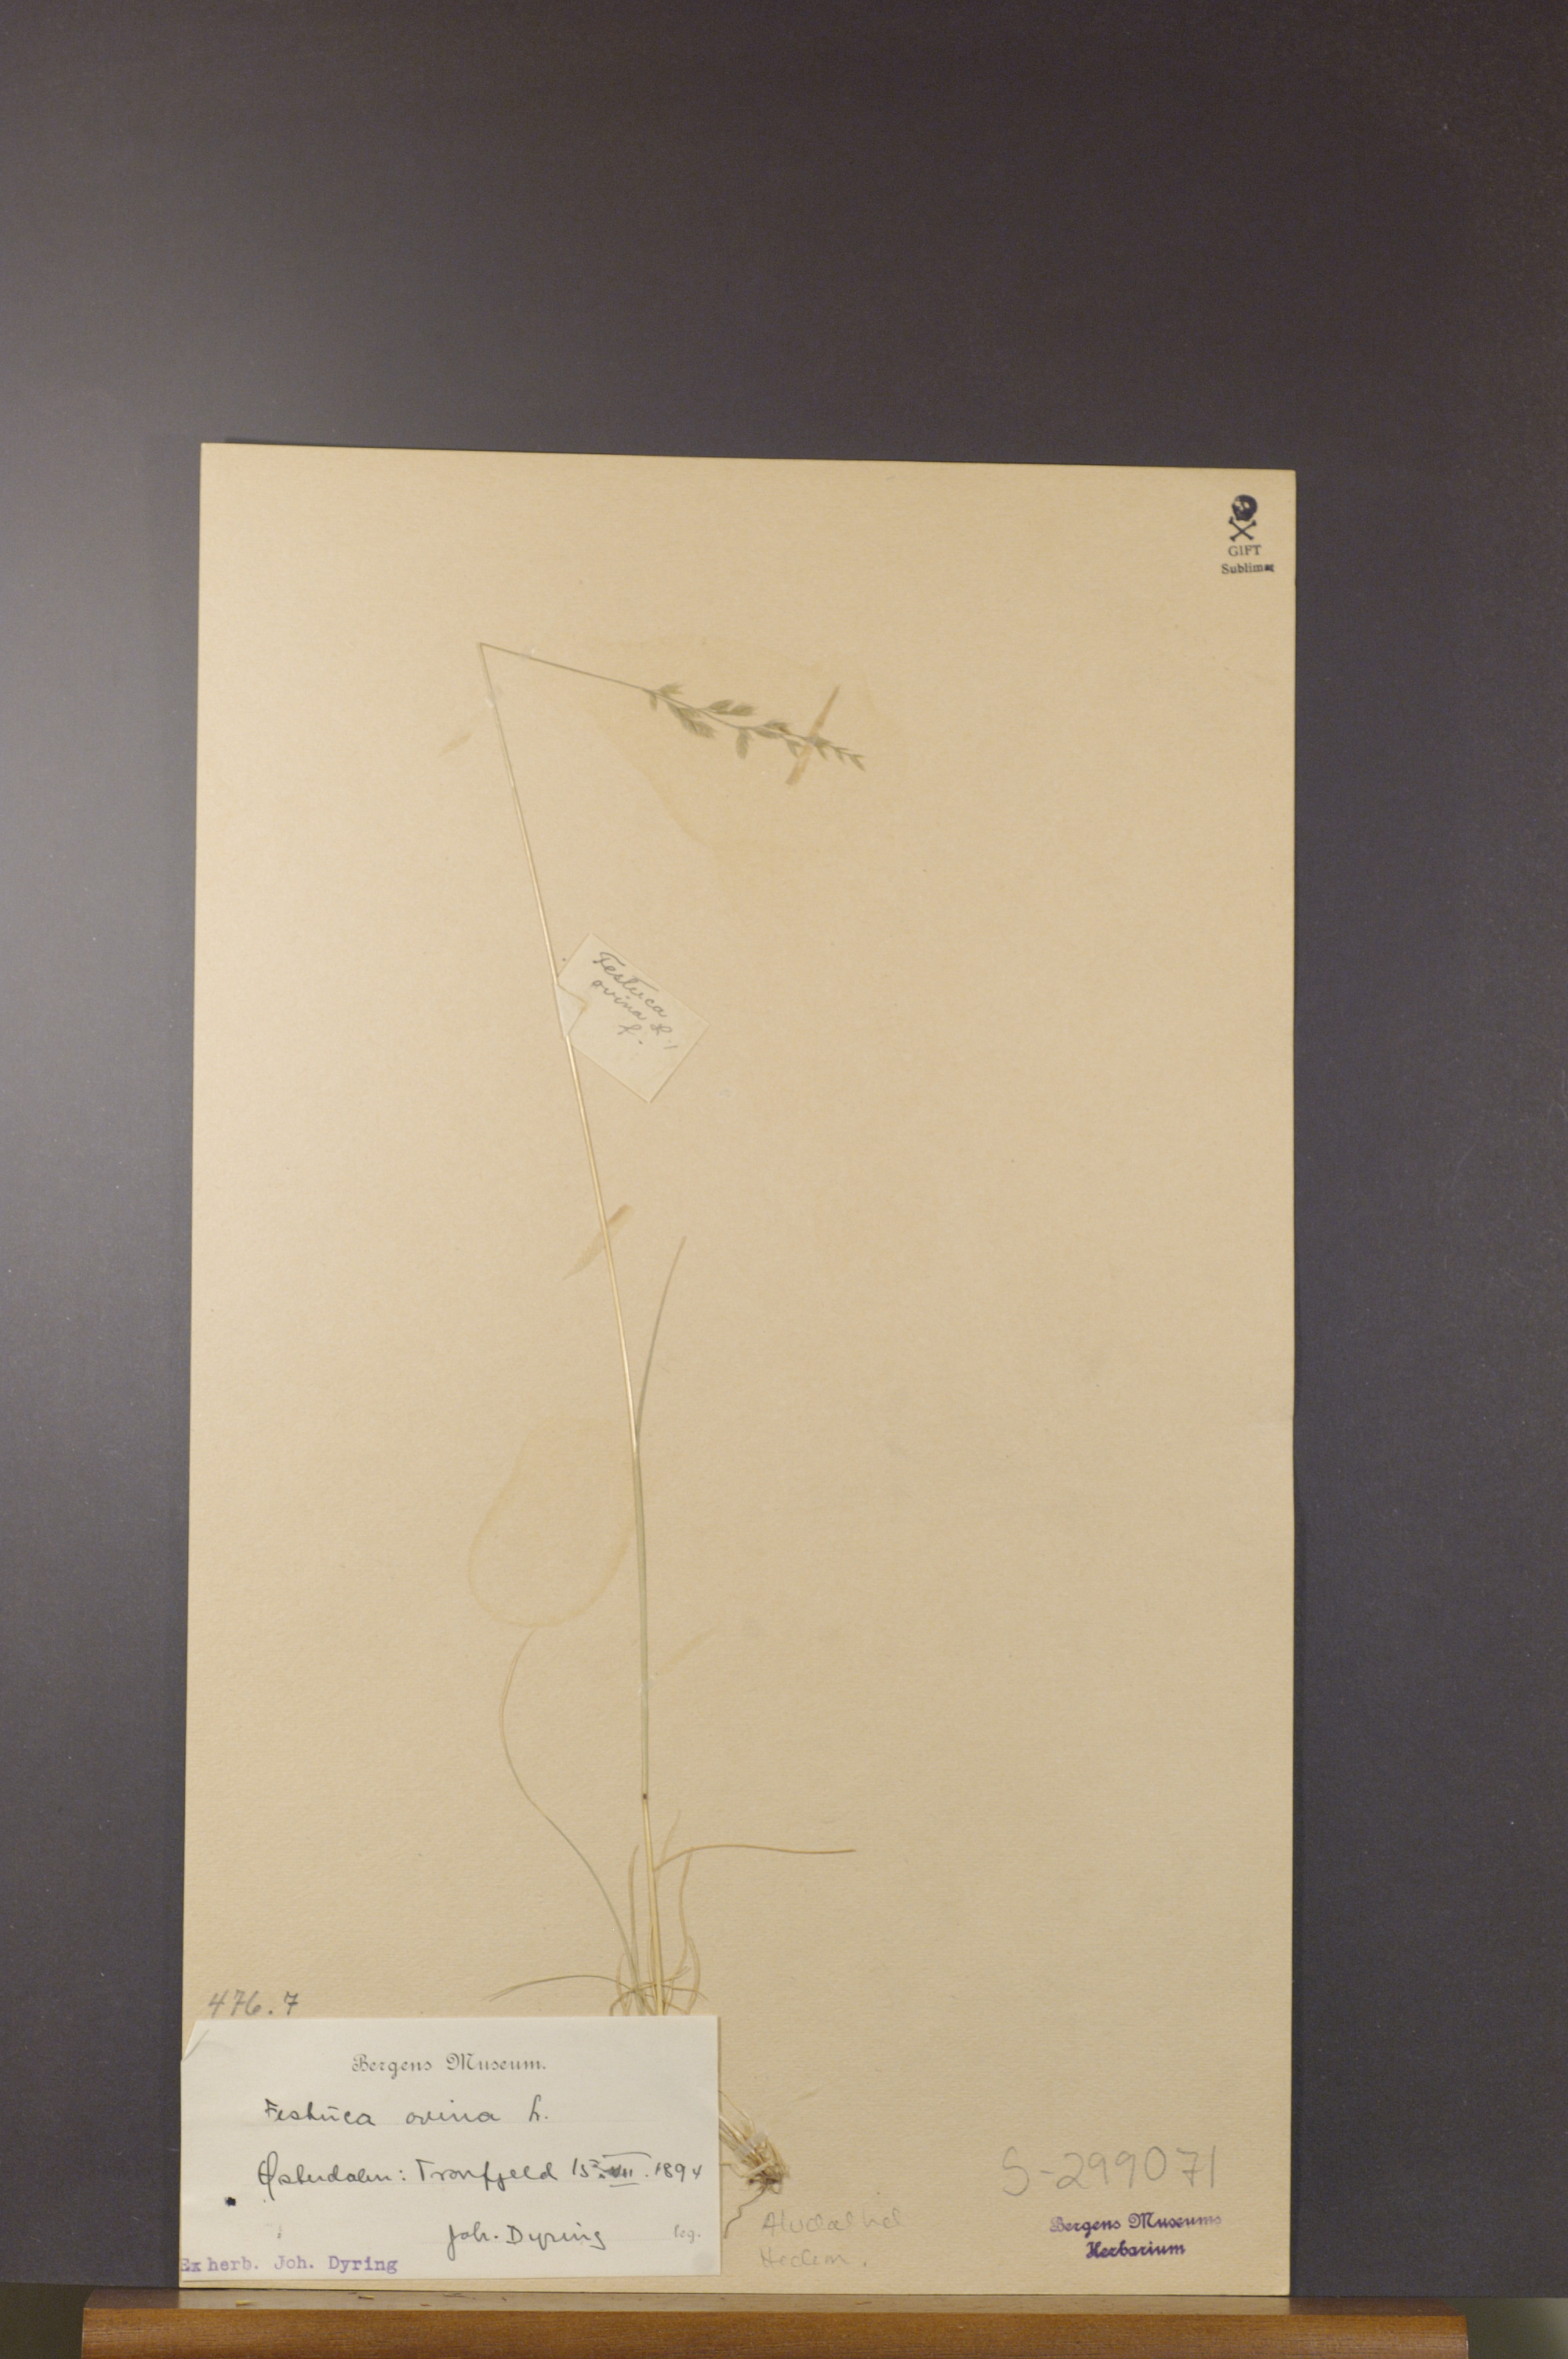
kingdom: Plantae
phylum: Tracheophyta
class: Liliopsida
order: Poales
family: Poaceae
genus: Festuca
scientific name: Festuca ovina
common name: Sheep fescue
